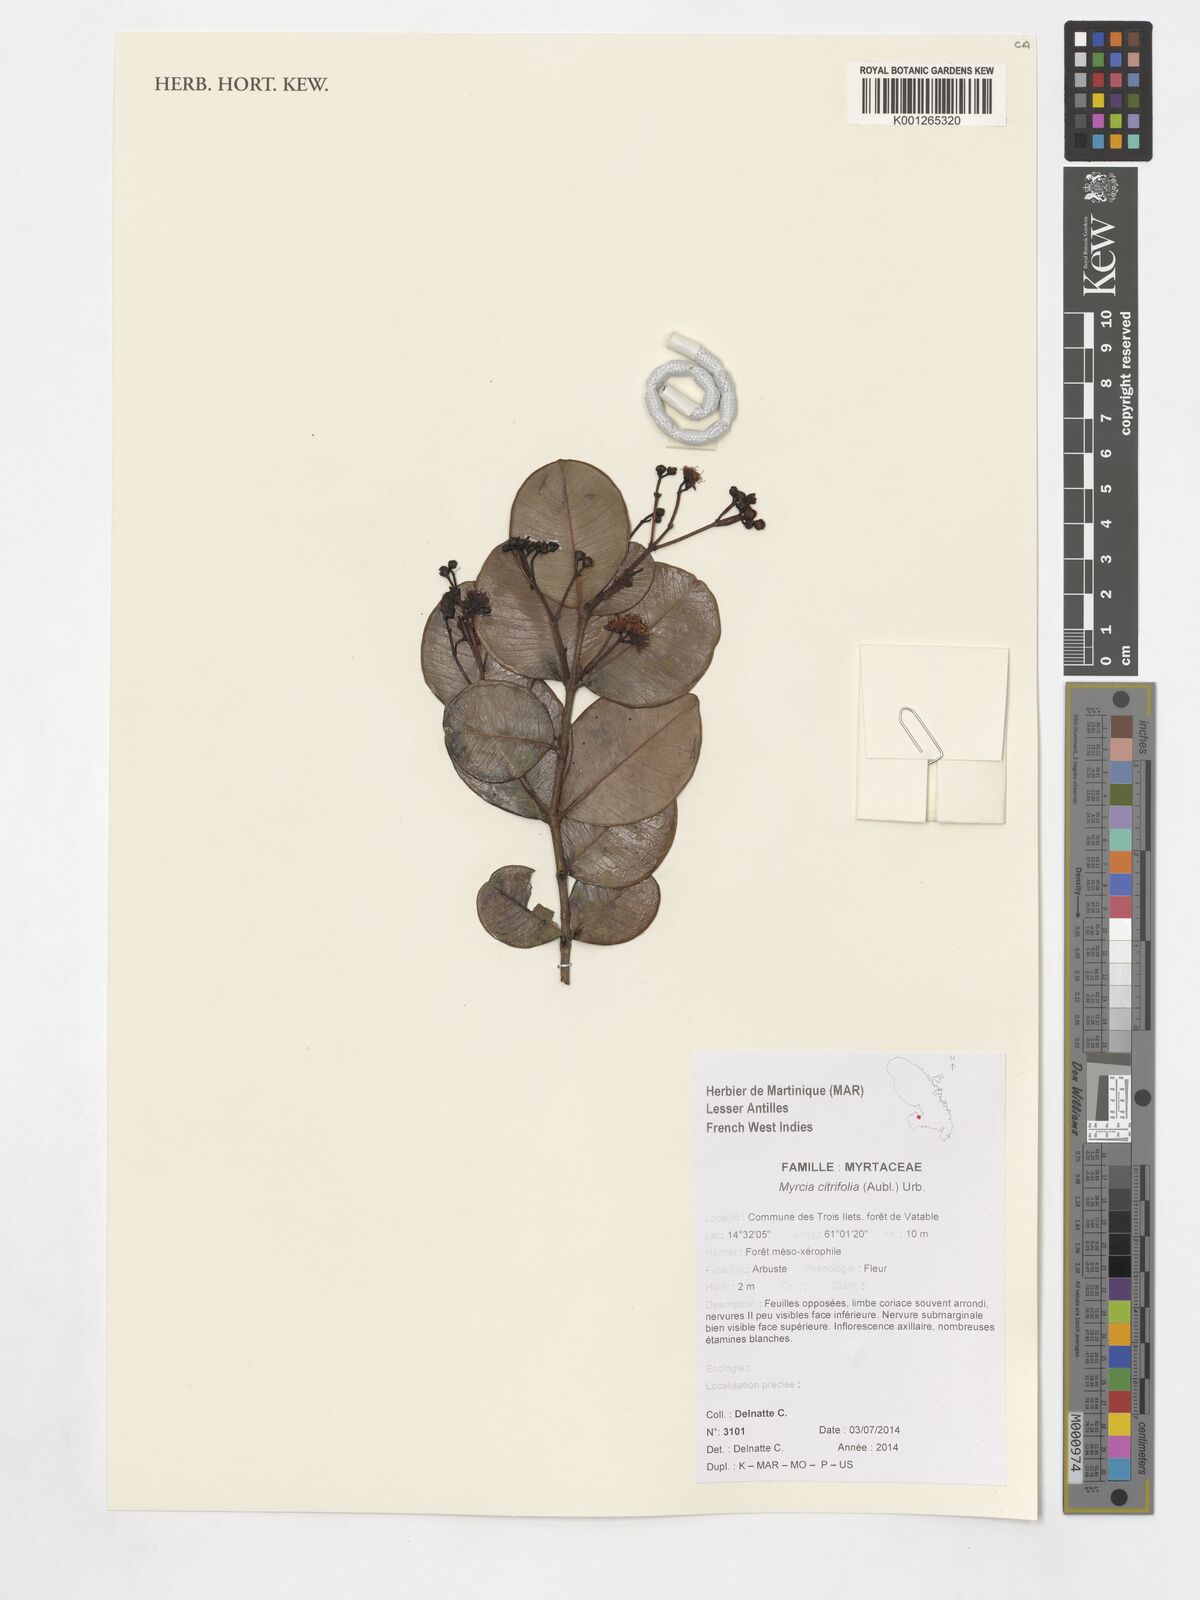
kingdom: Plantae
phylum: Tracheophyta
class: Magnoliopsida
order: Myrtales
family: Myrtaceae
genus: Myrcia
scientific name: Myrcia glabra
